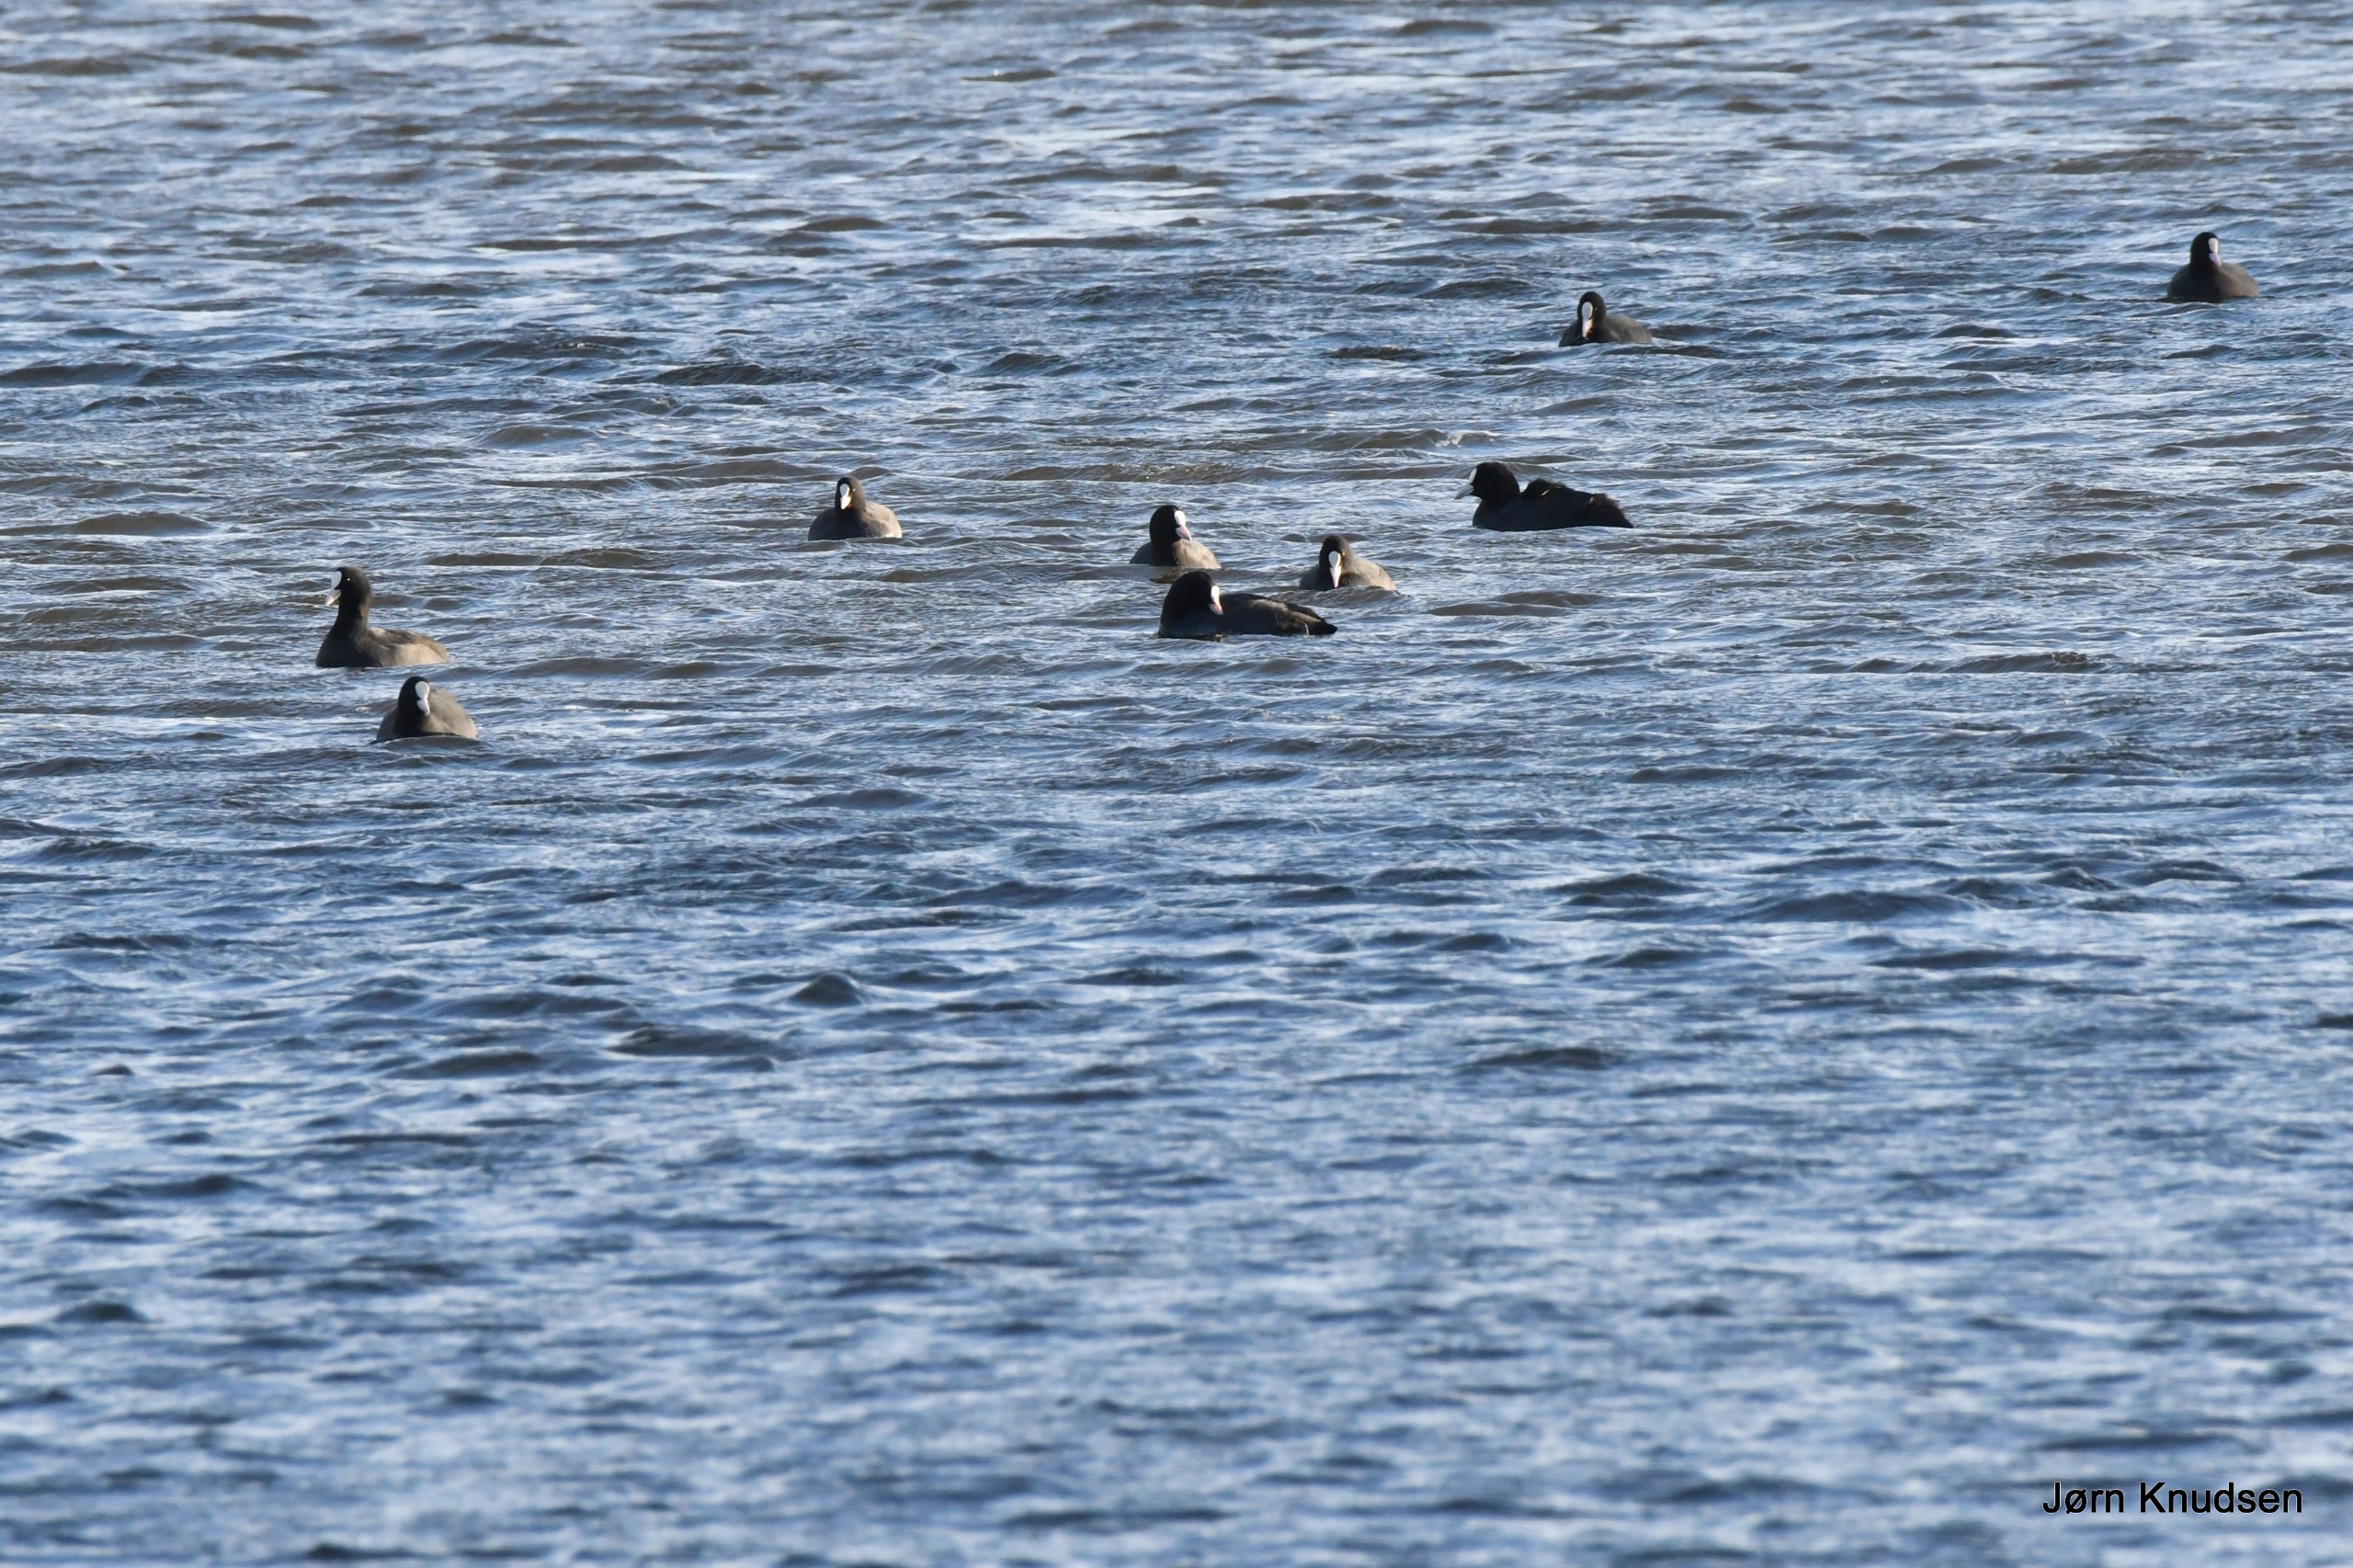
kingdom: Animalia
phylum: Chordata
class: Aves
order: Gruiformes
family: Rallidae
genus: Fulica
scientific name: Fulica atra
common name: Blishøne
